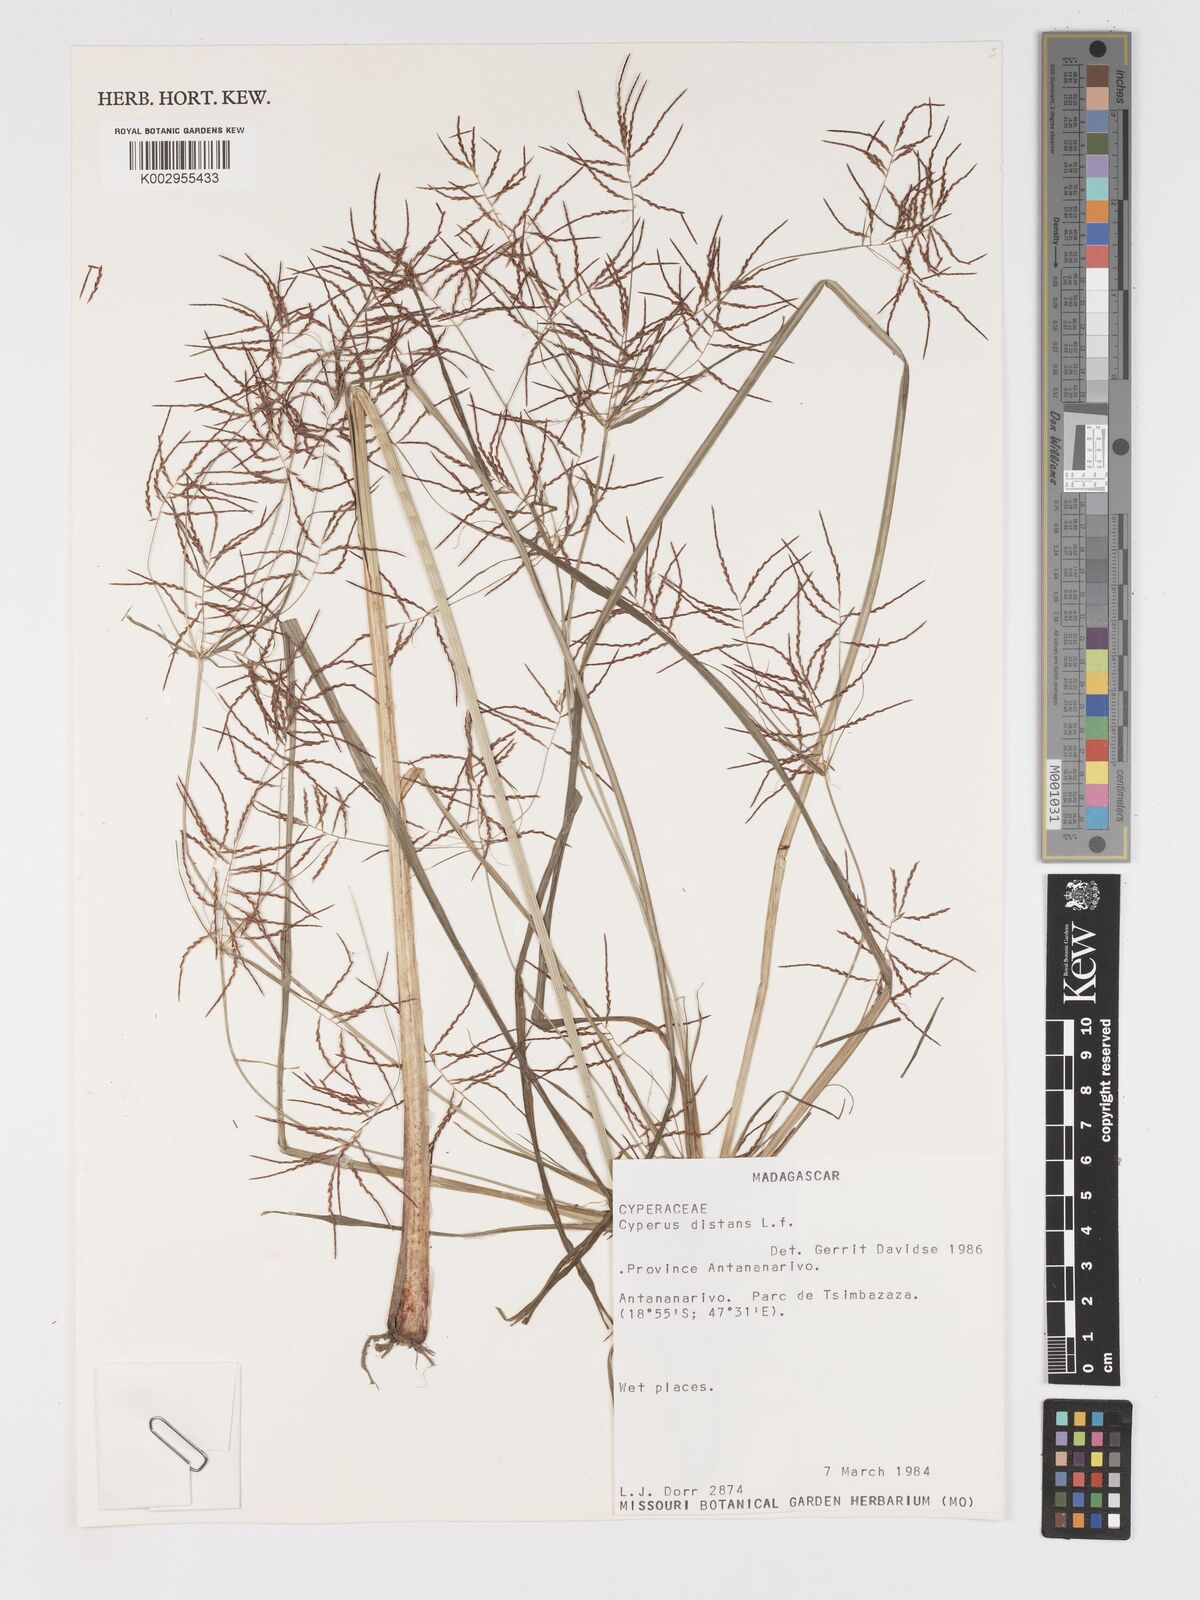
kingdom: Plantae
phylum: Tracheophyta
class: Liliopsida
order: Poales
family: Cyperaceae
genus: Cyperus
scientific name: Cyperus distans
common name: Slender cyperus
